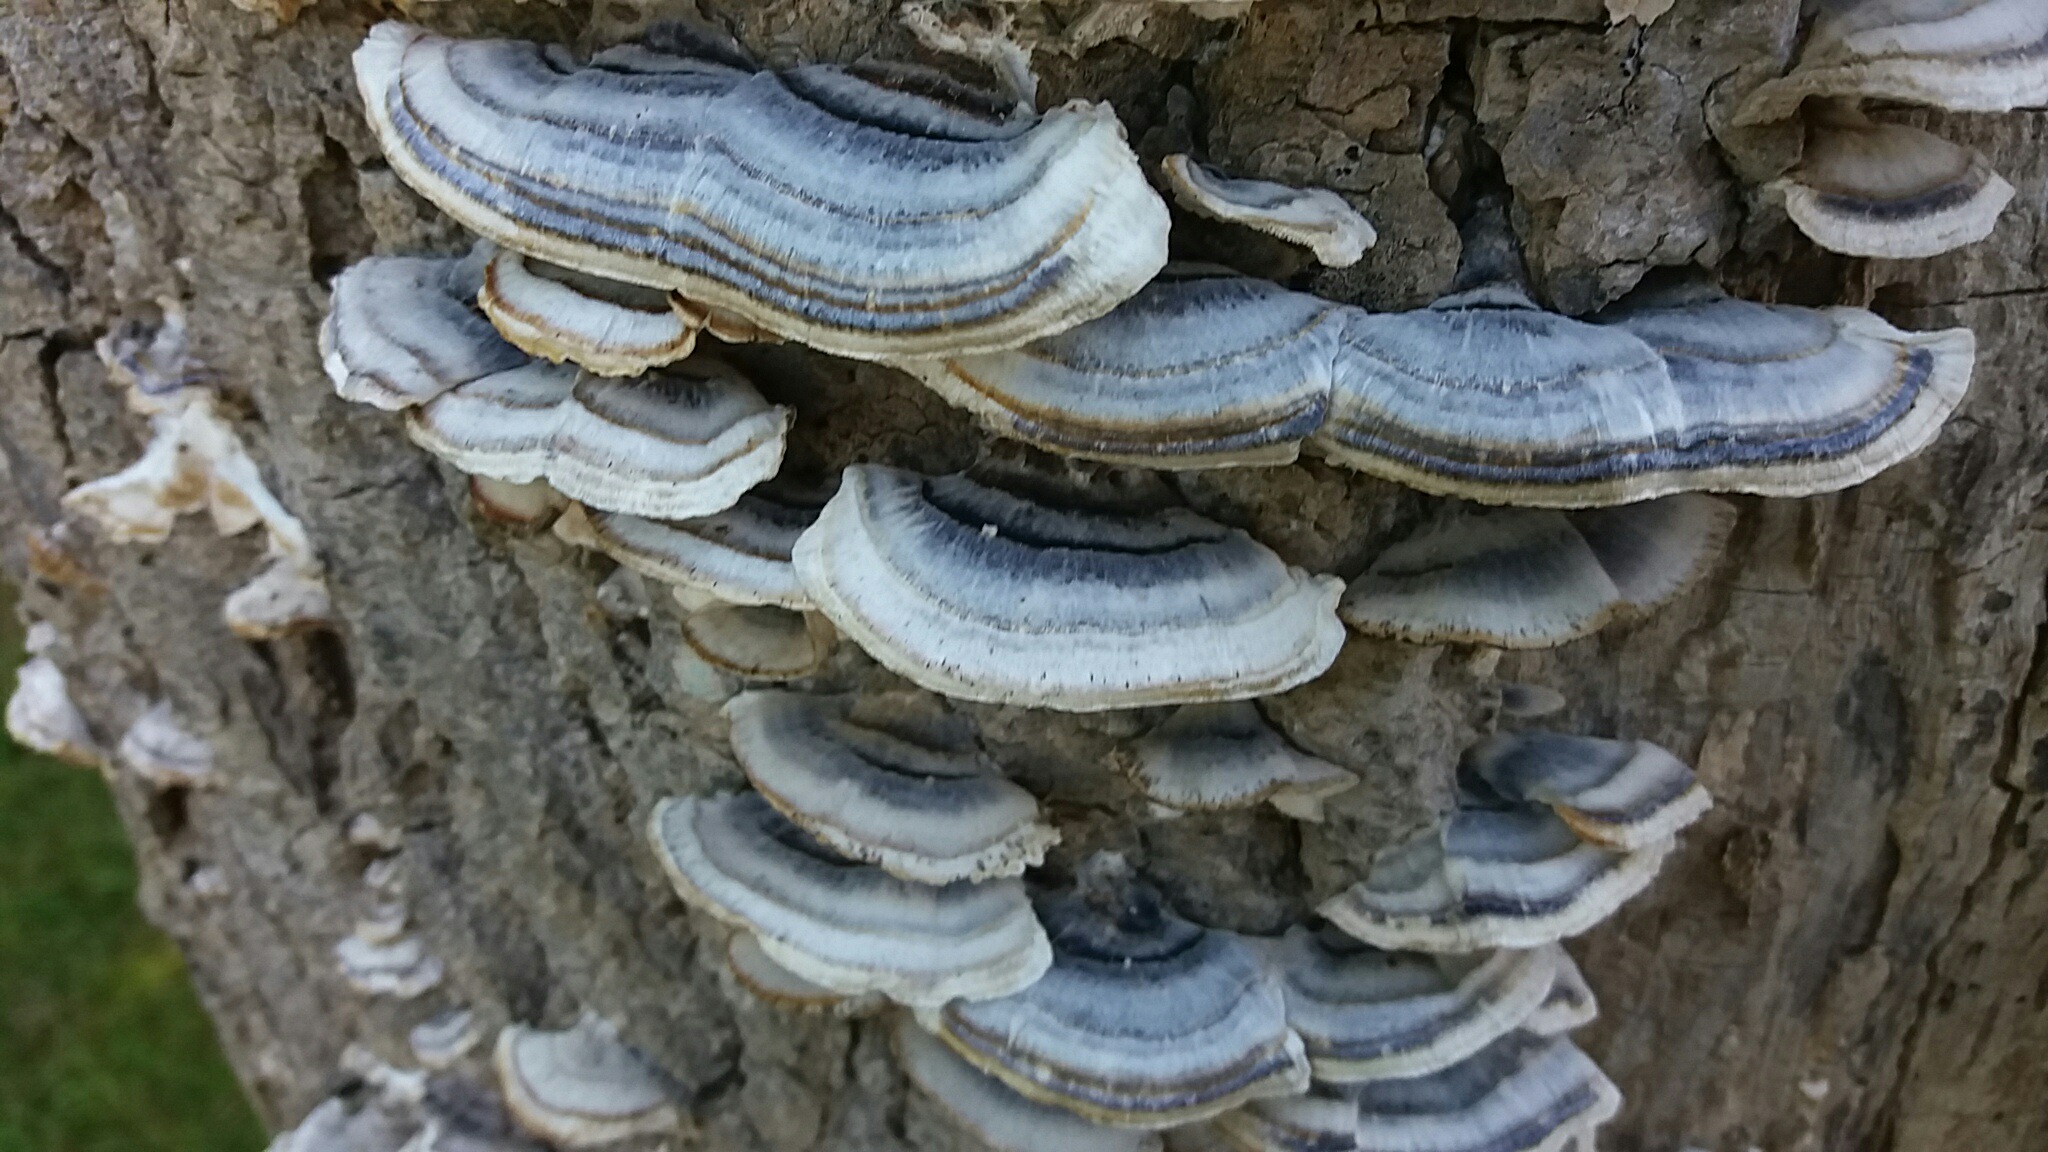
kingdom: Fungi
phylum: Basidiomycota
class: Agaricomycetes
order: Polyporales
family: Polyporaceae
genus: Trametes
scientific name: Trametes versicolor
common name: broget læderporesvamp
